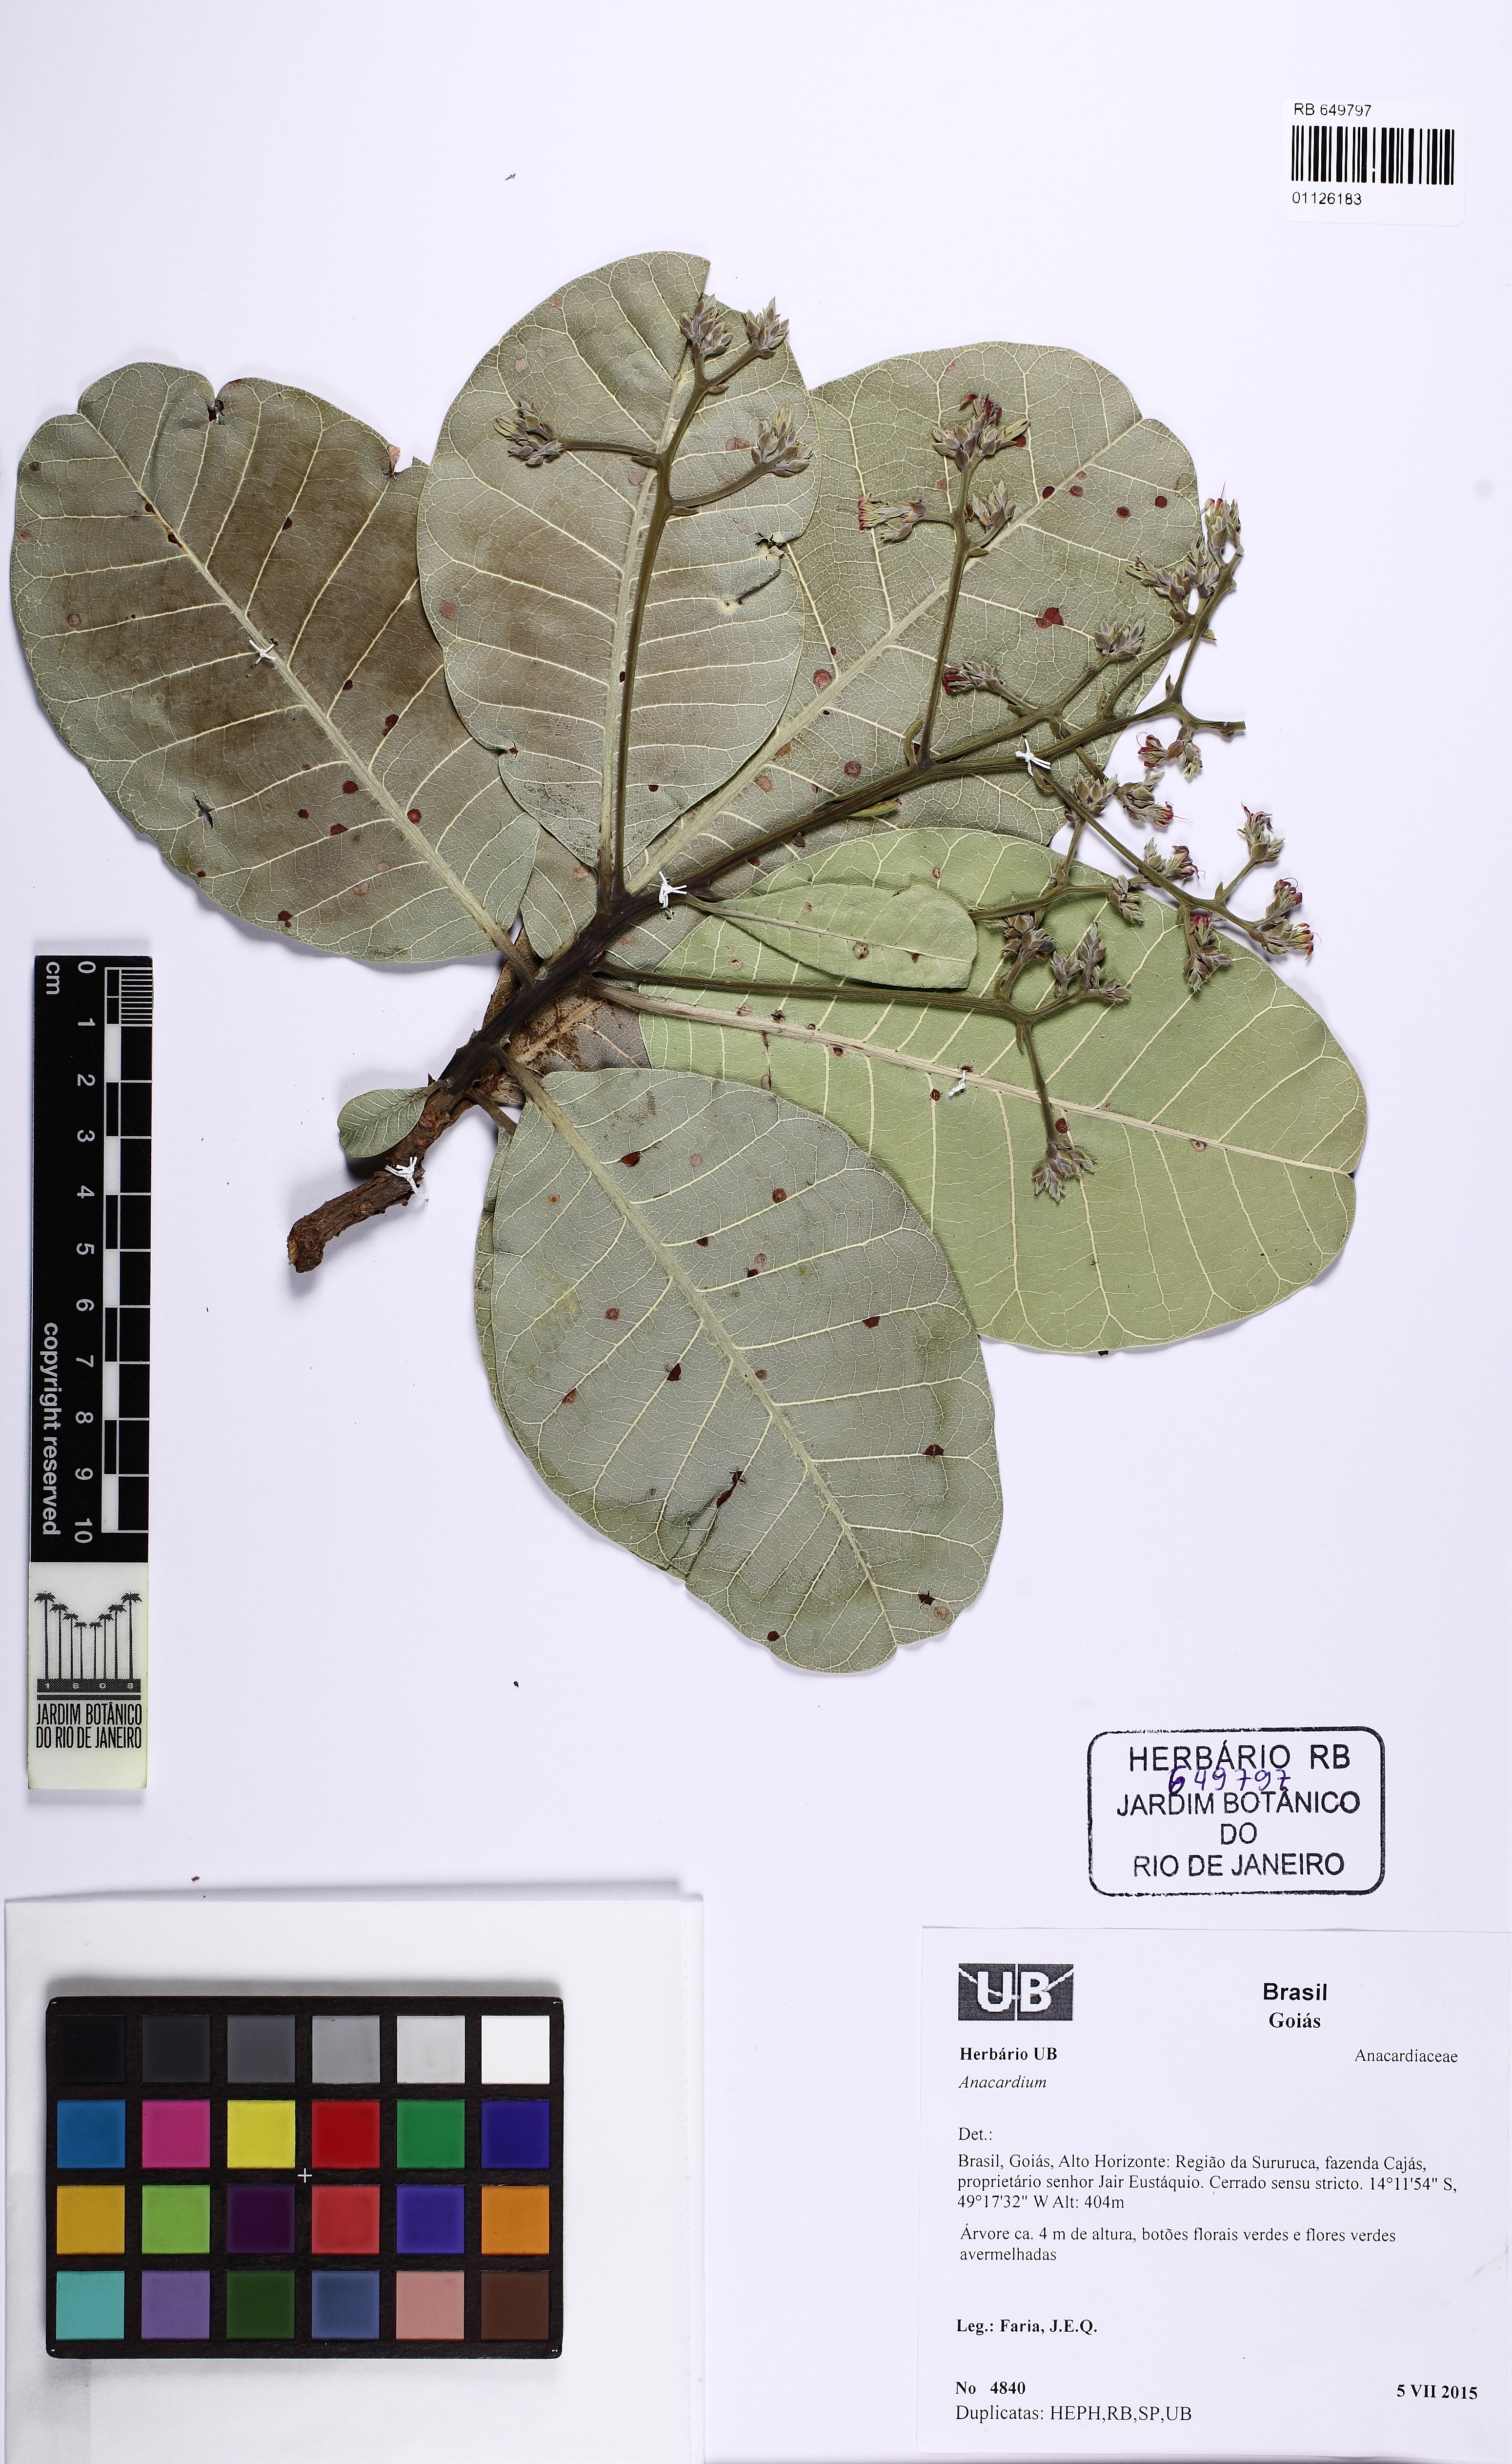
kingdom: Plantae
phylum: Tracheophyta
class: Magnoliopsida
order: Sapindales
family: Anacardiaceae
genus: Anacardium
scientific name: Anacardium occidentale
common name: Cashew
